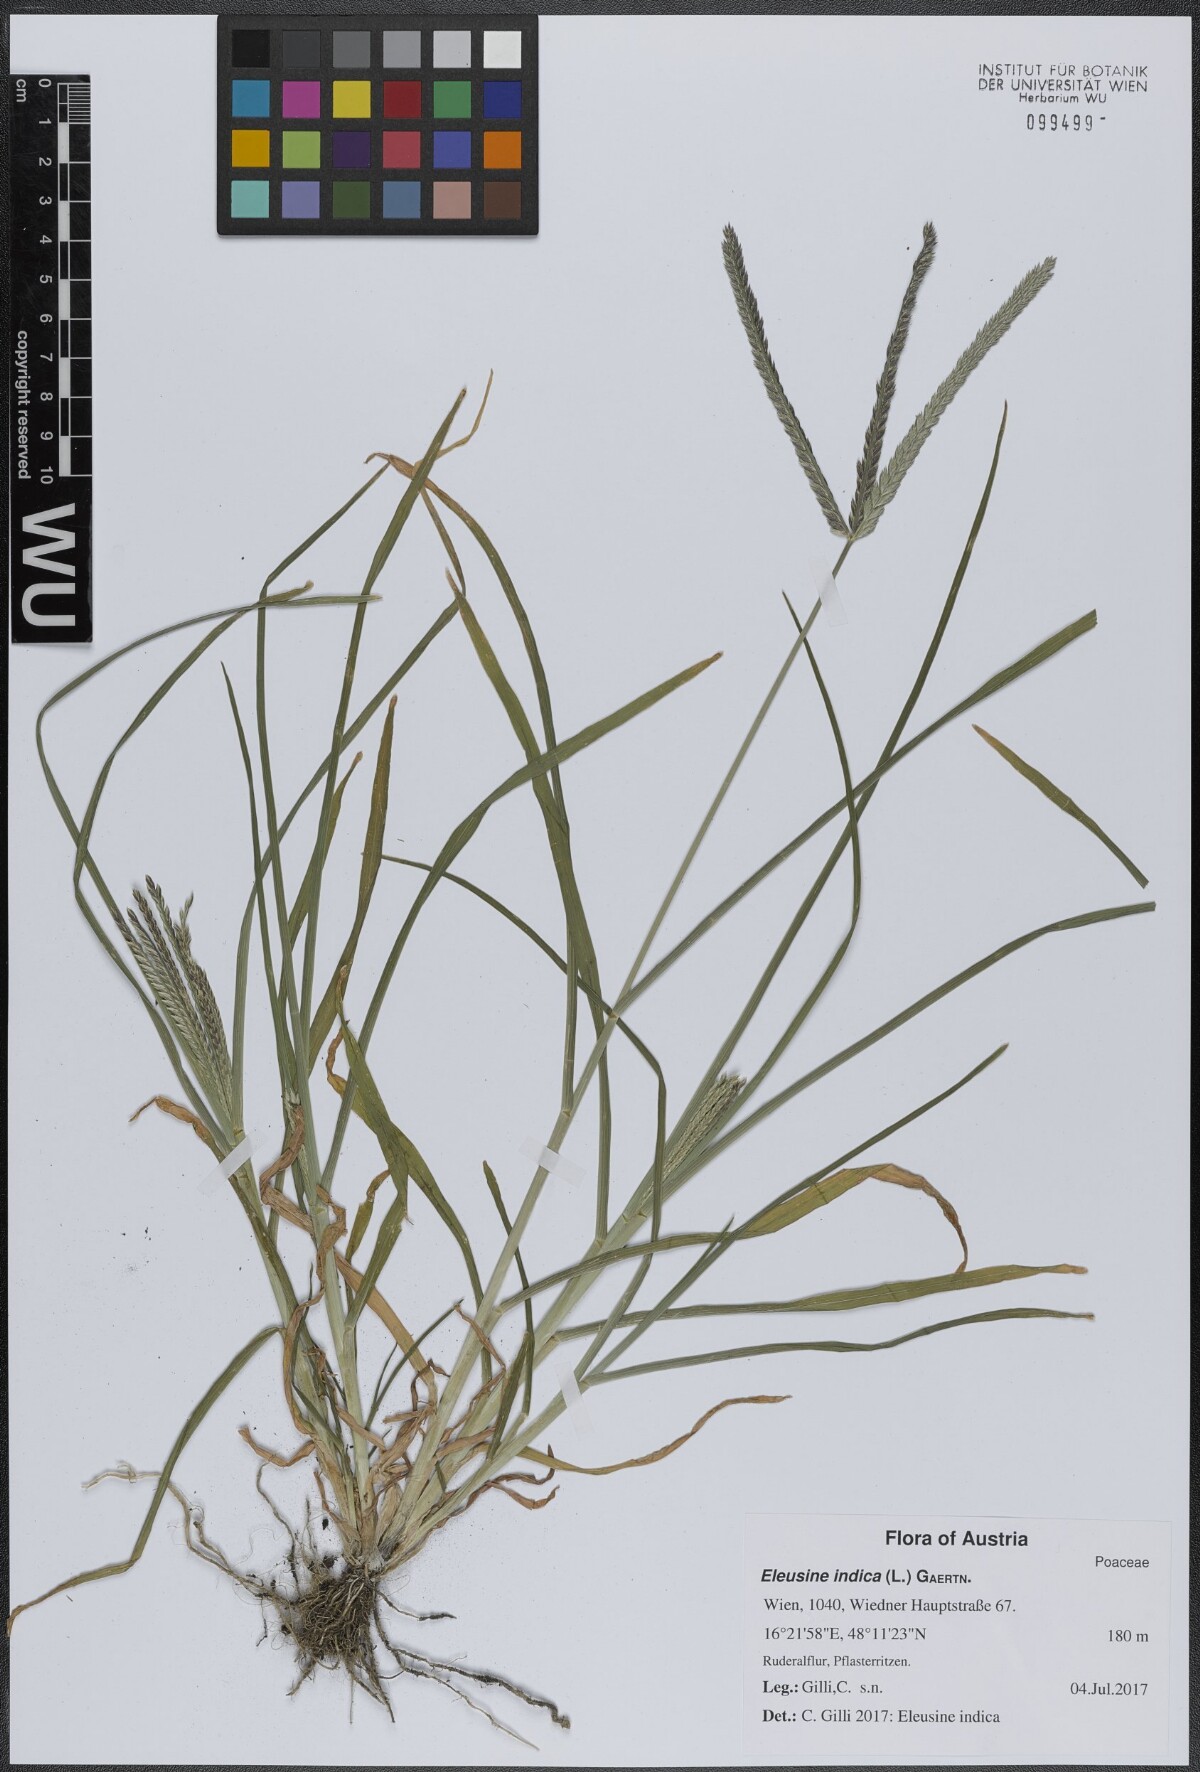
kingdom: Plantae
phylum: Tracheophyta
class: Liliopsida
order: Poales
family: Poaceae
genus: Eleusine
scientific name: Eleusine indica
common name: Yard-grass
